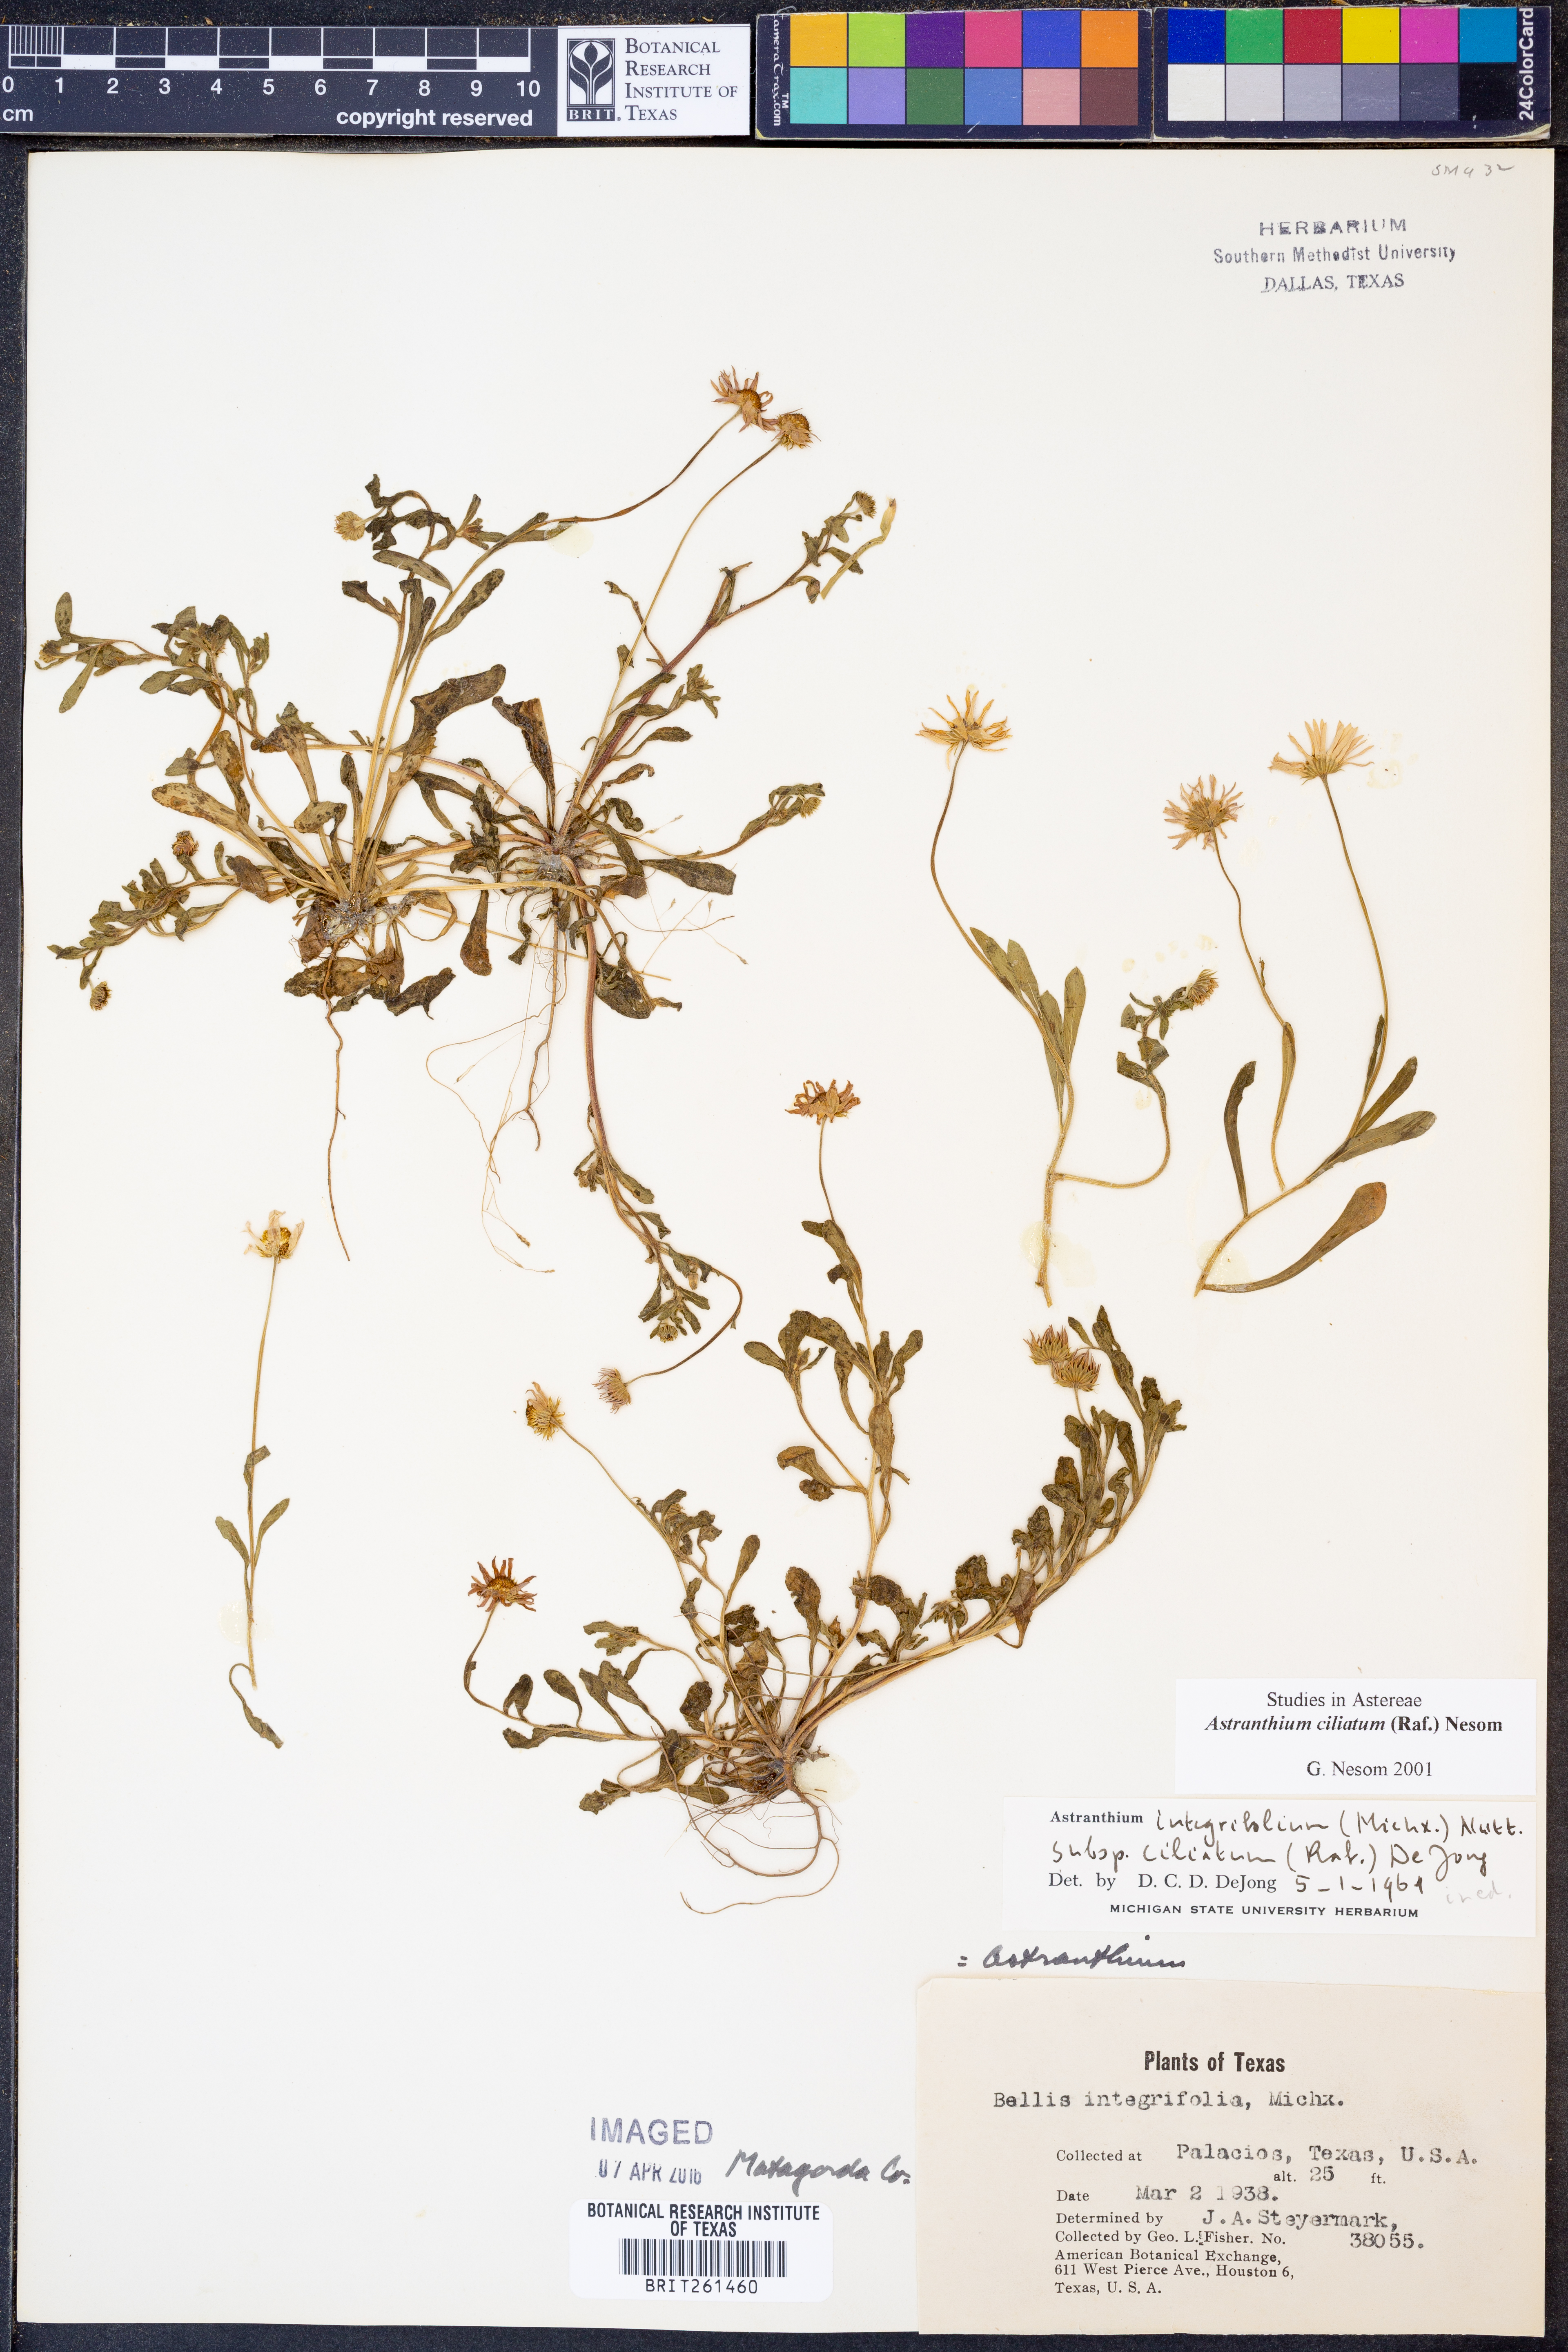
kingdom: Plantae
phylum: Tracheophyta
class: Magnoliopsida
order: Asterales
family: Asteraceae
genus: Astranthium
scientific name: Astranthium ciliatum
